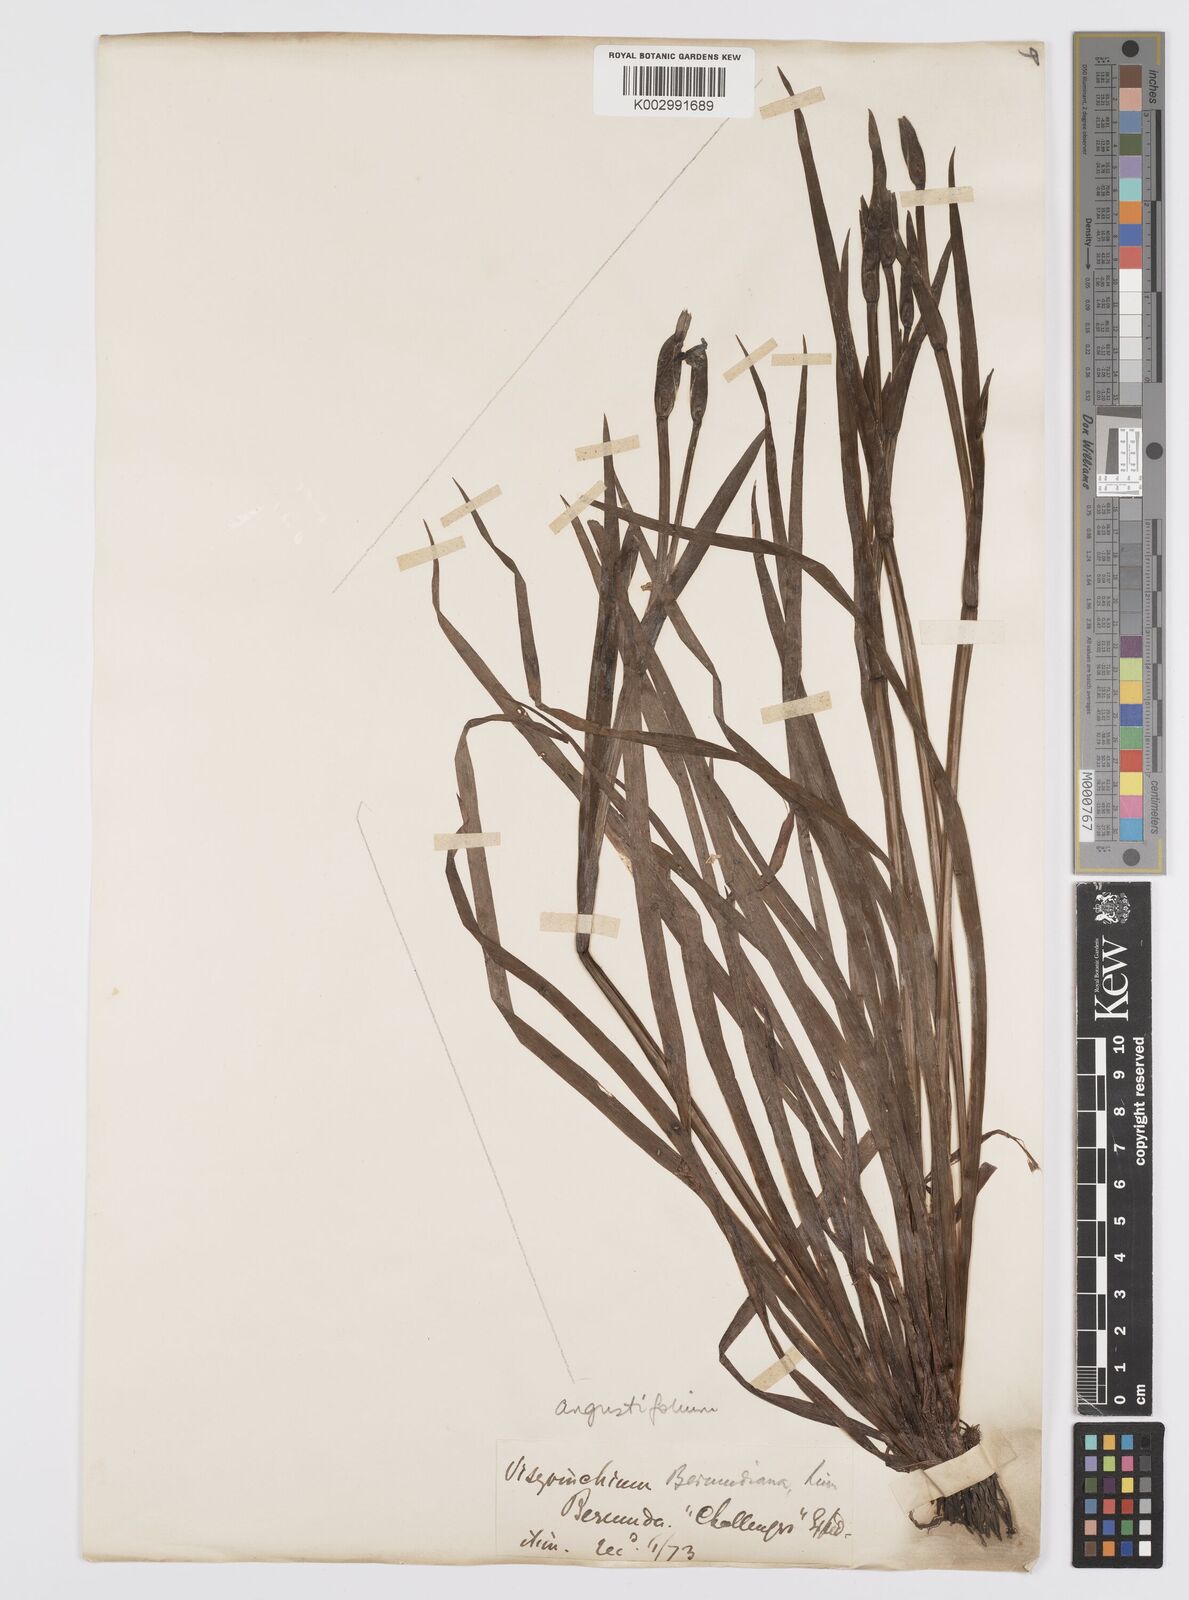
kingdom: Plantae
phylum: Tracheophyta
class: Liliopsida
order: Asparagales
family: Iridaceae
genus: Sisyrinchium
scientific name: Sisyrinchium
